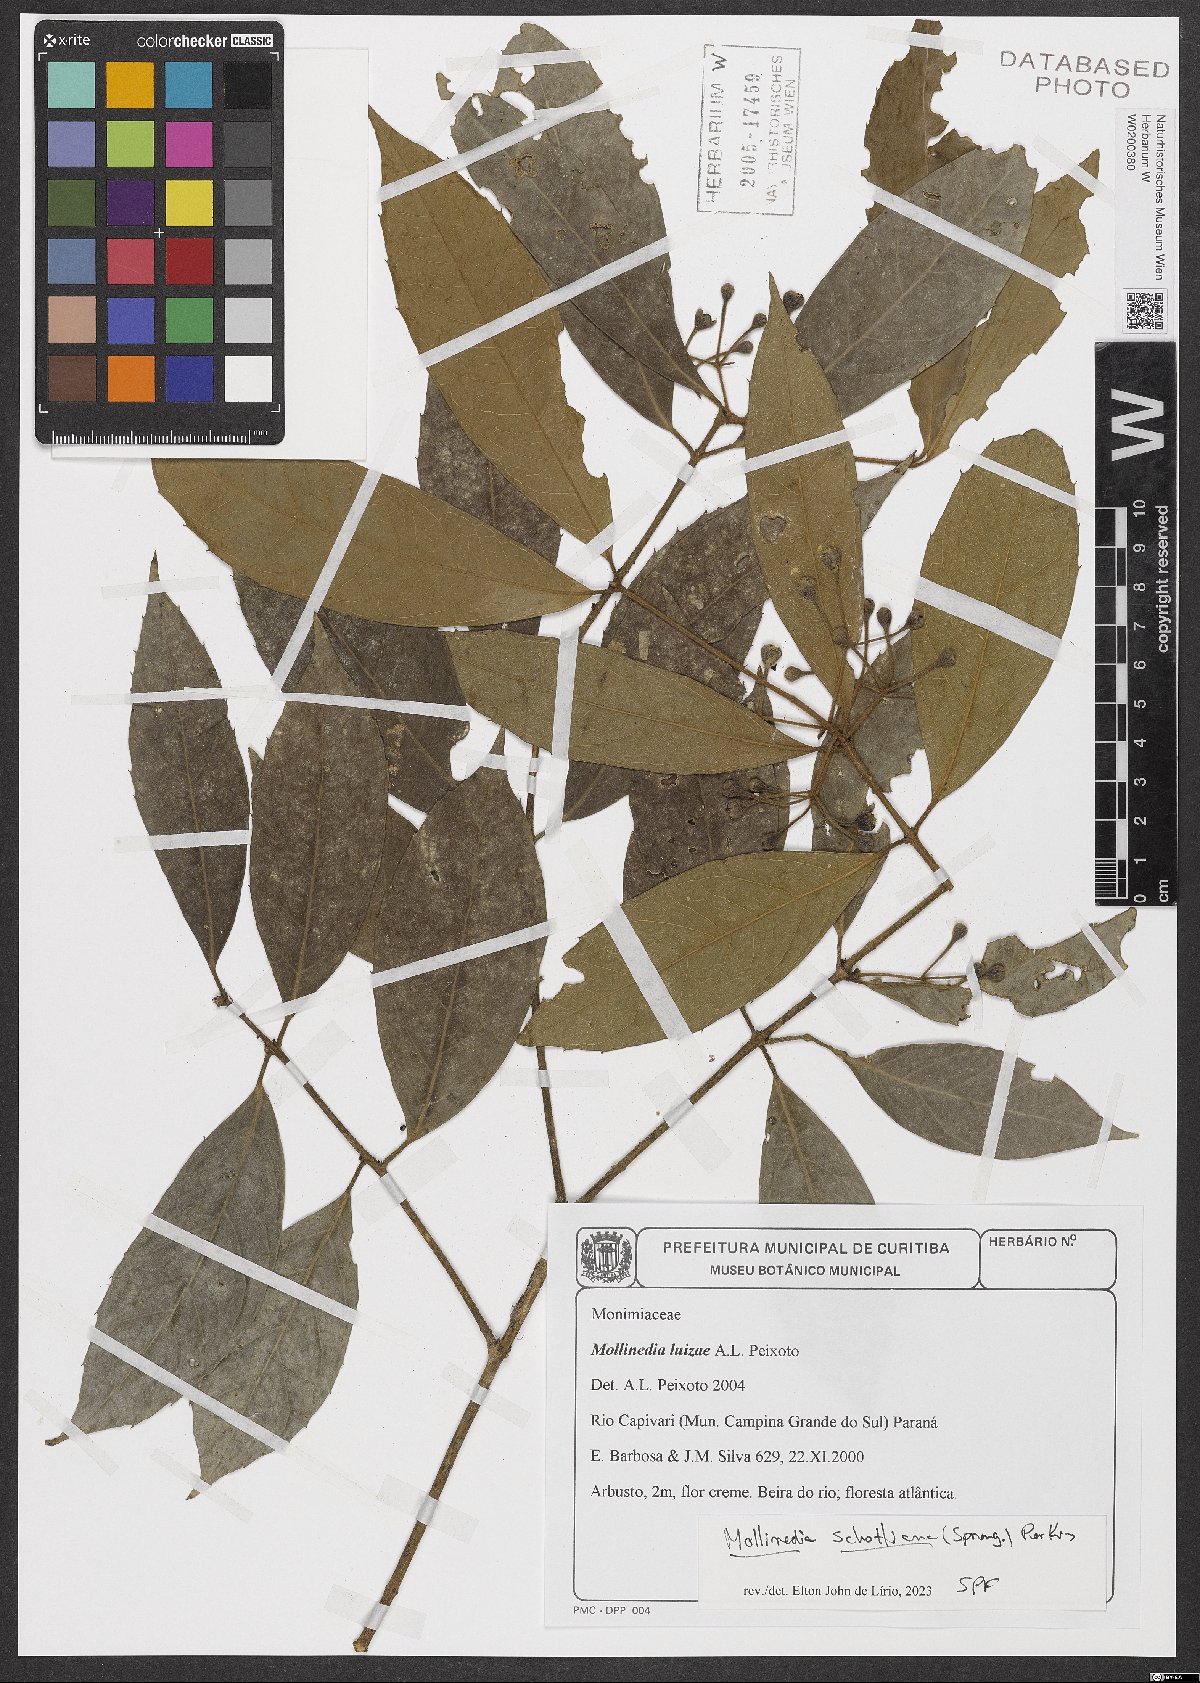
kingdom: Plantae
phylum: Tracheophyta
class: Magnoliopsida
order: Laurales
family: Monimiaceae
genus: Mollinedia
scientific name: Mollinedia umbellata
